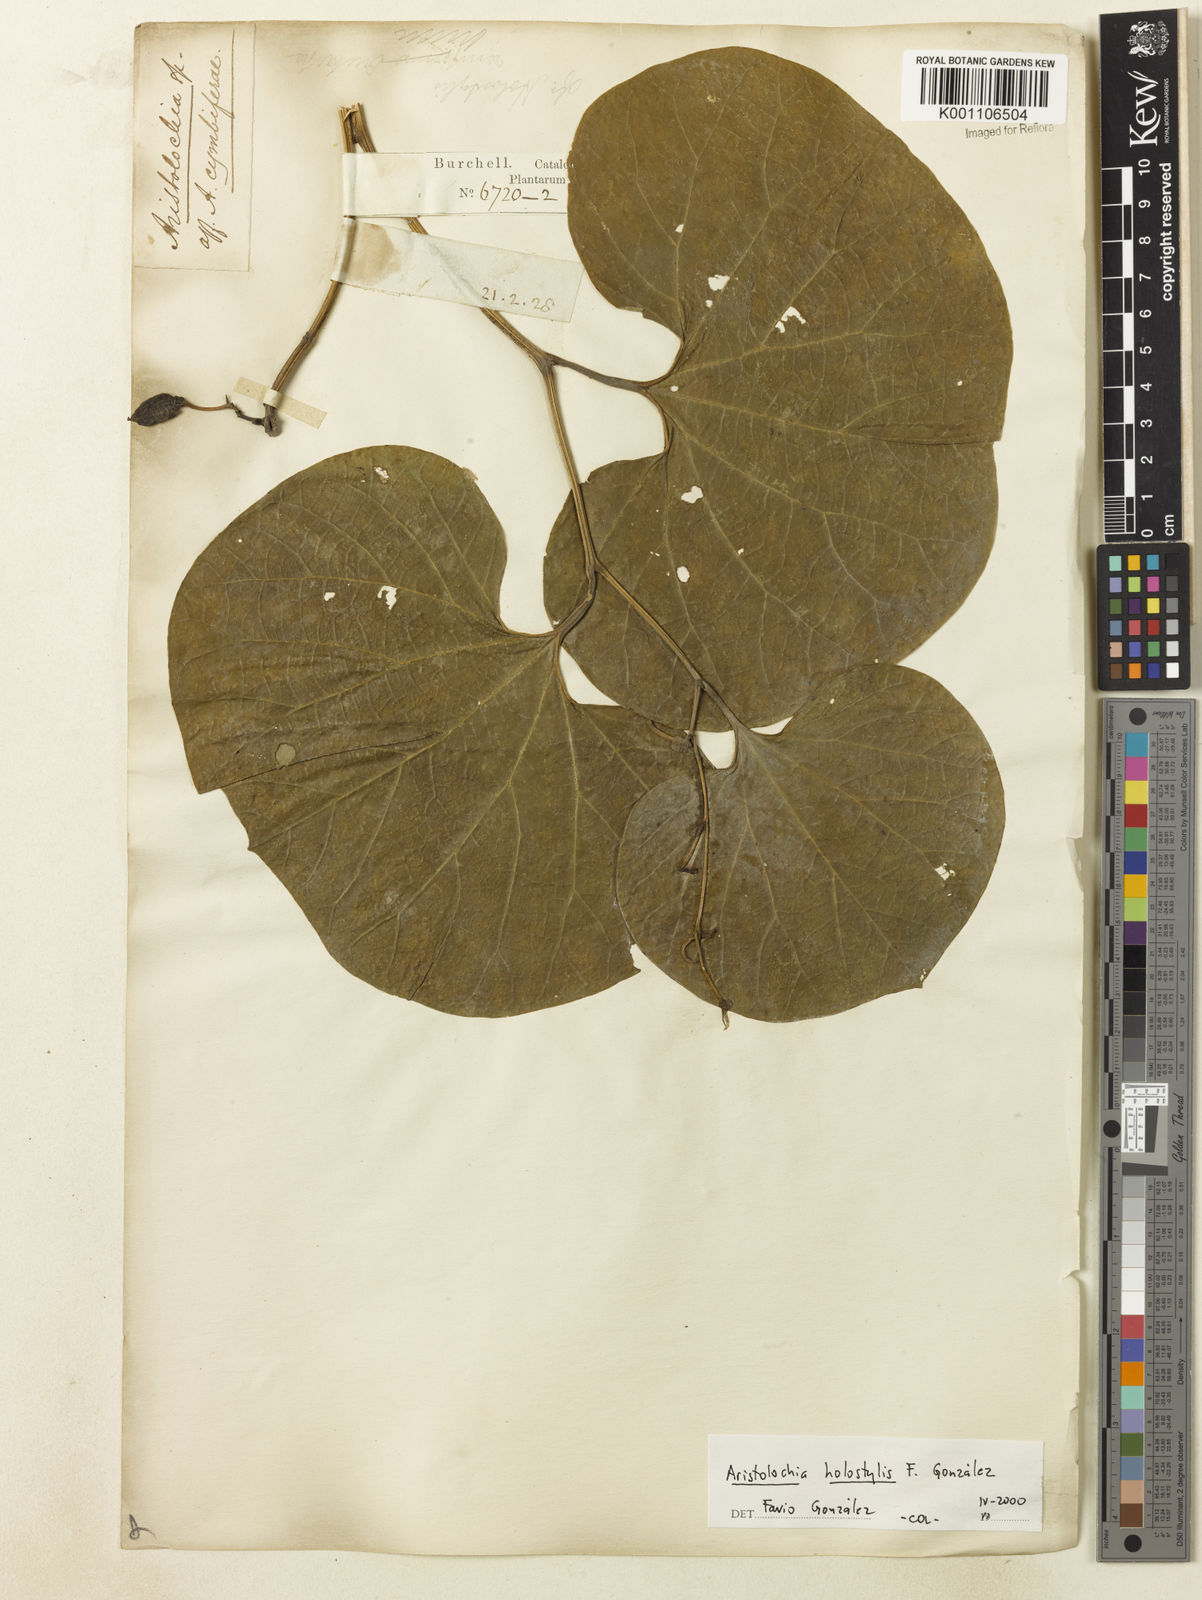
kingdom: Plantae
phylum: Tracheophyta
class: Magnoliopsida
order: Piperales
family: Aristolochiaceae
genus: Aristolochia
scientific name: Aristolochia
